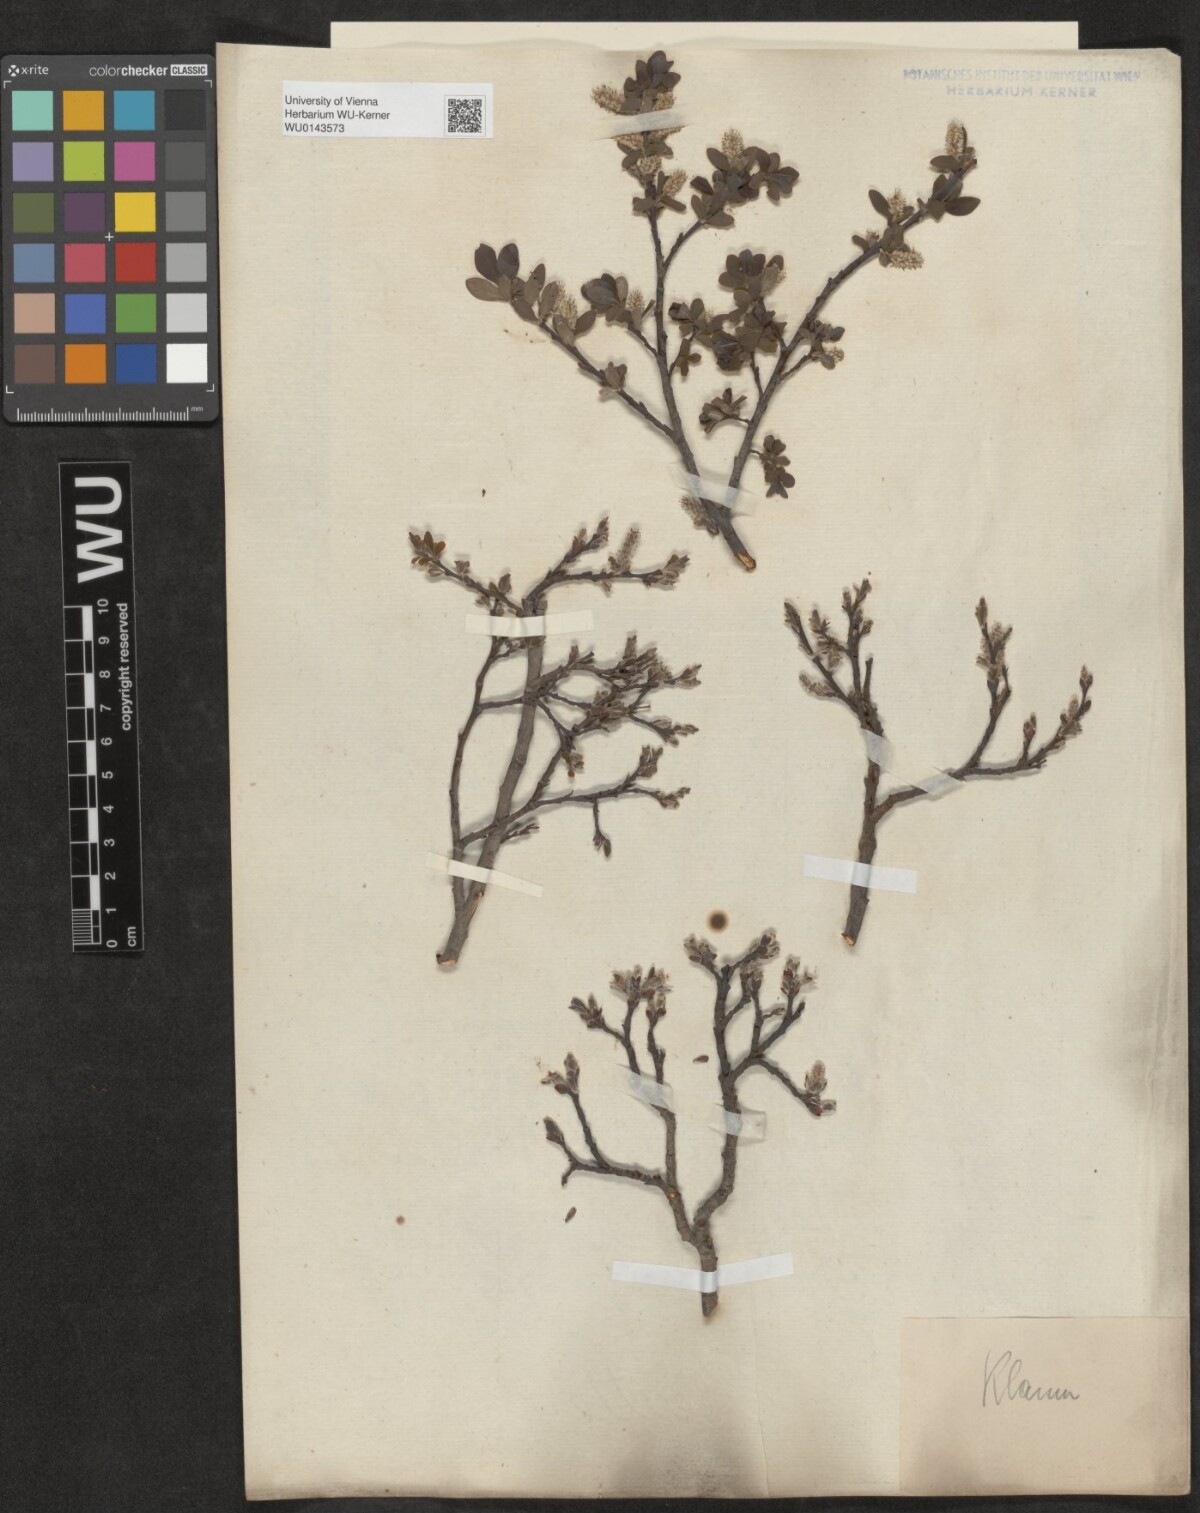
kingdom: Plantae
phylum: Tracheophyta
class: Magnoliopsida
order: Malpighiales
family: Salicaceae
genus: Salix
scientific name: Salix waldsteiniana
